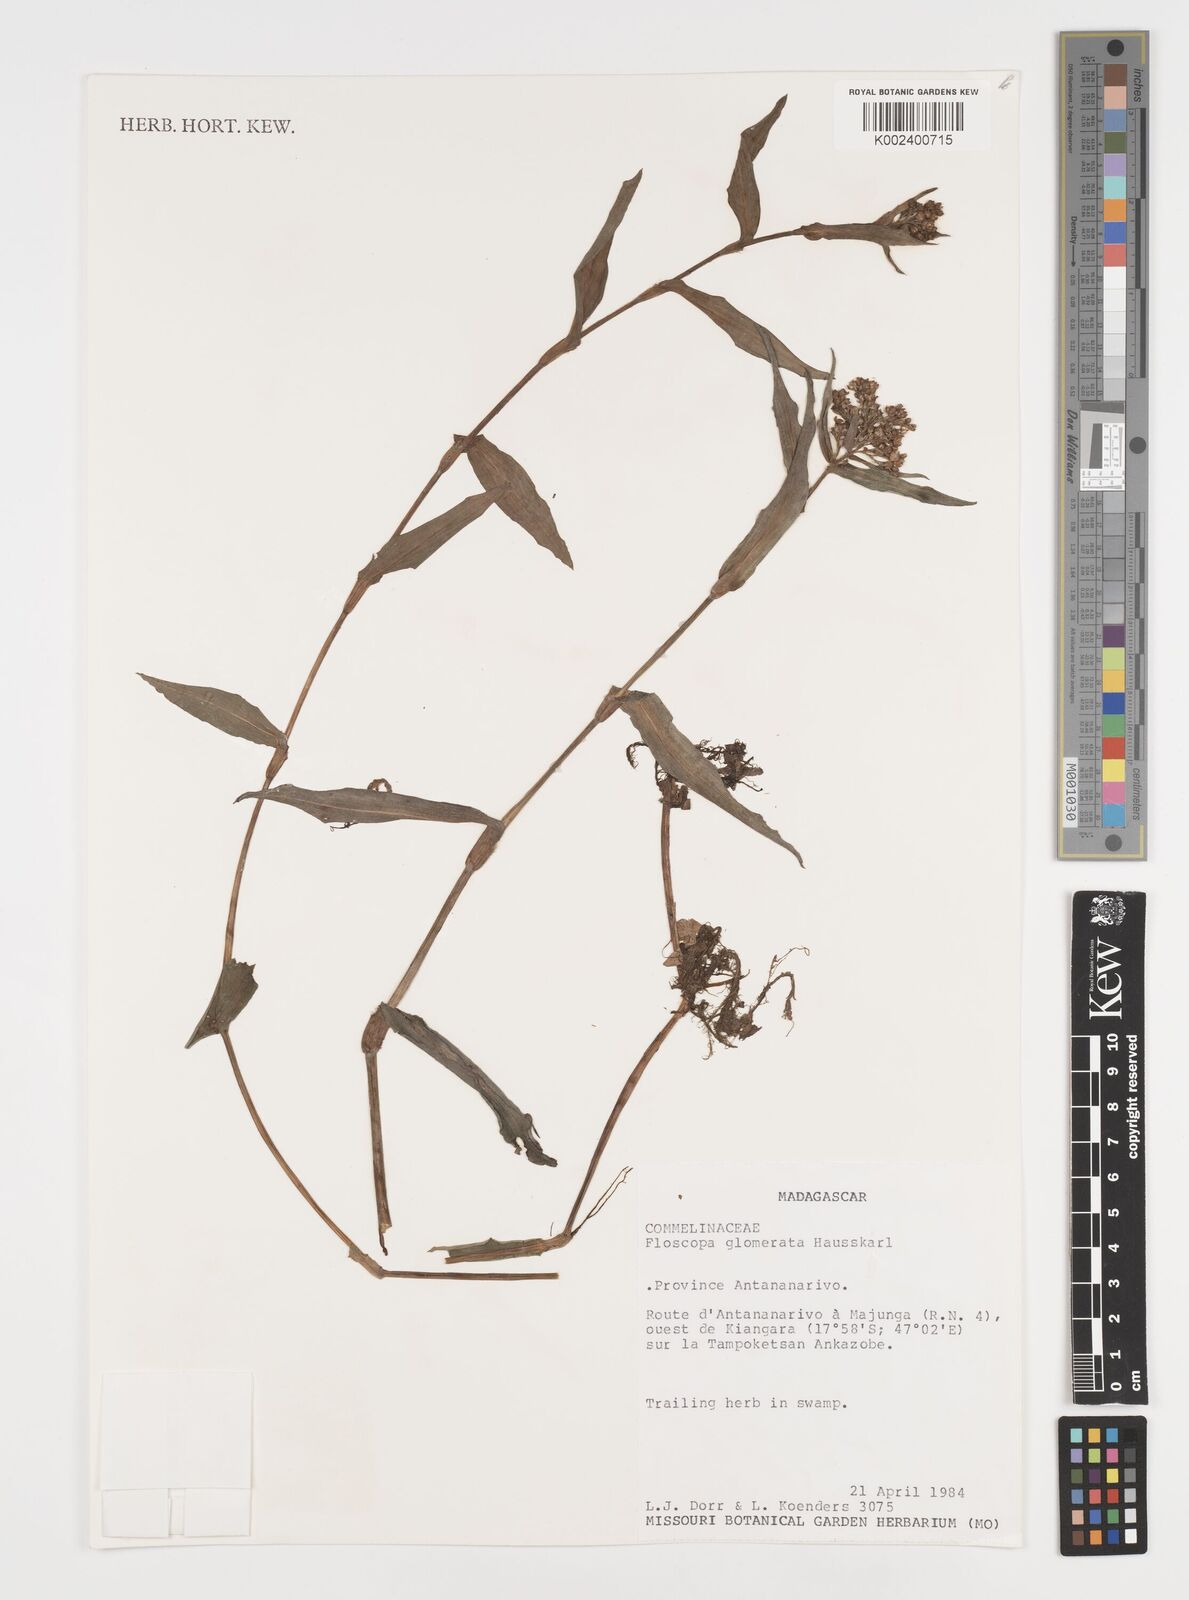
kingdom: Plantae
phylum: Tracheophyta
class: Liliopsida
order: Commelinales
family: Commelinaceae
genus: Floscopa
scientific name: Floscopa glomerata
